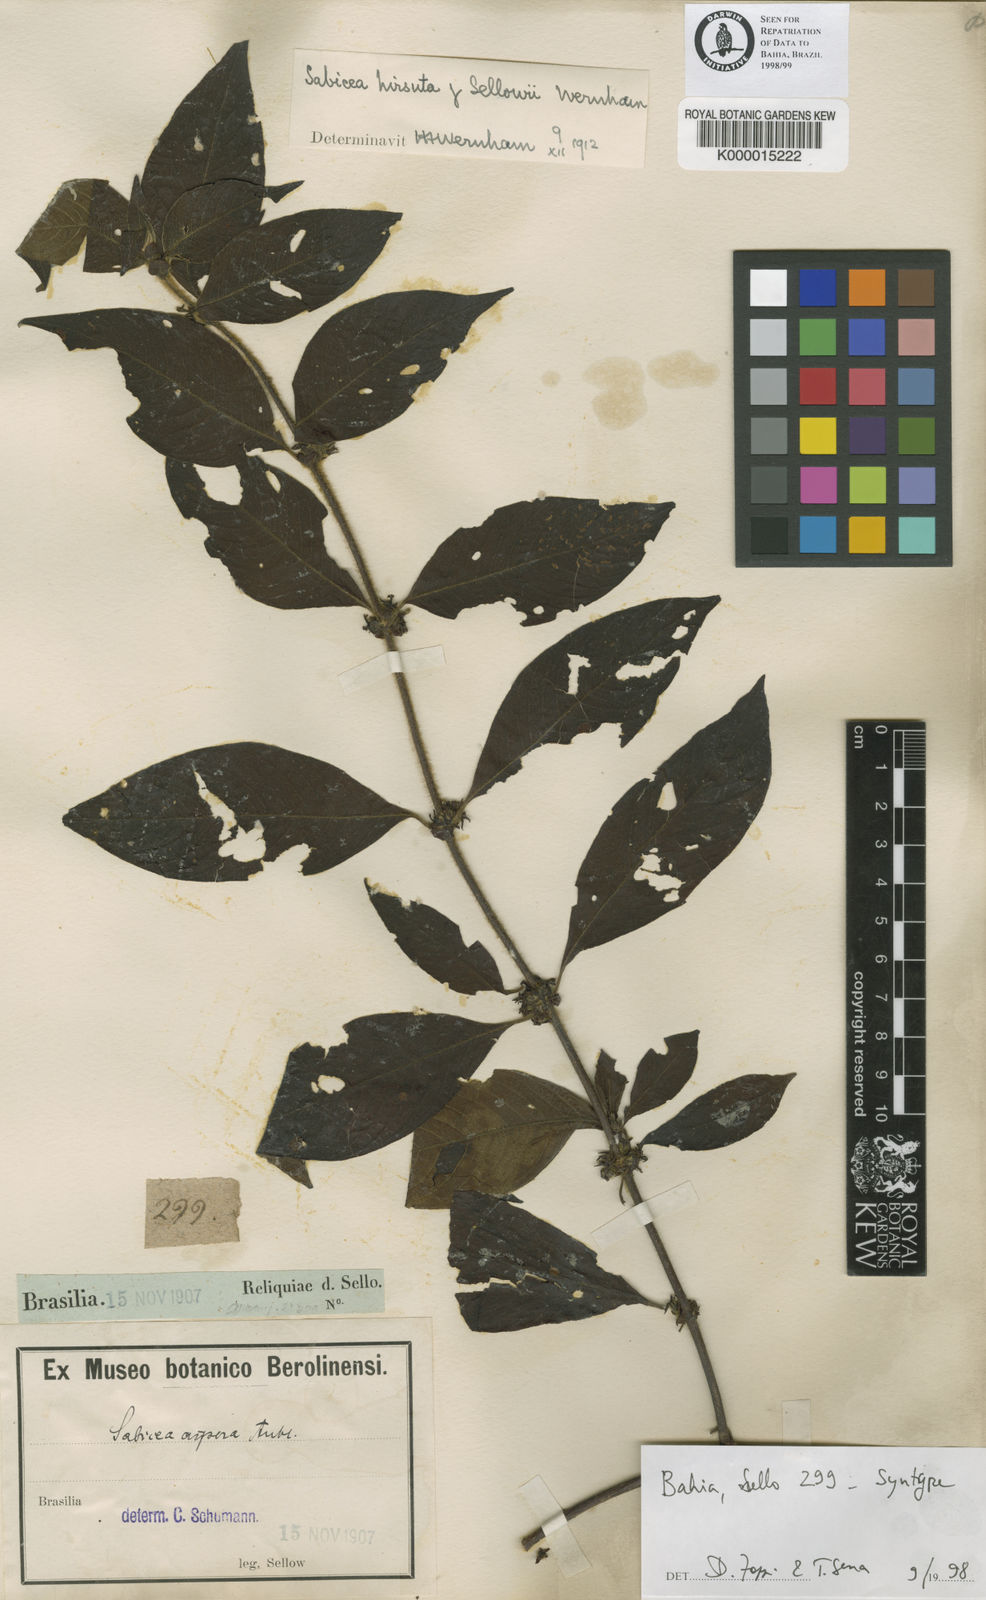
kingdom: Plantae
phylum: Tracheophyta
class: Magnoliopsida
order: Gentianales
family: Rubiaceae
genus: Sabicea
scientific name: Sabicea grisea
